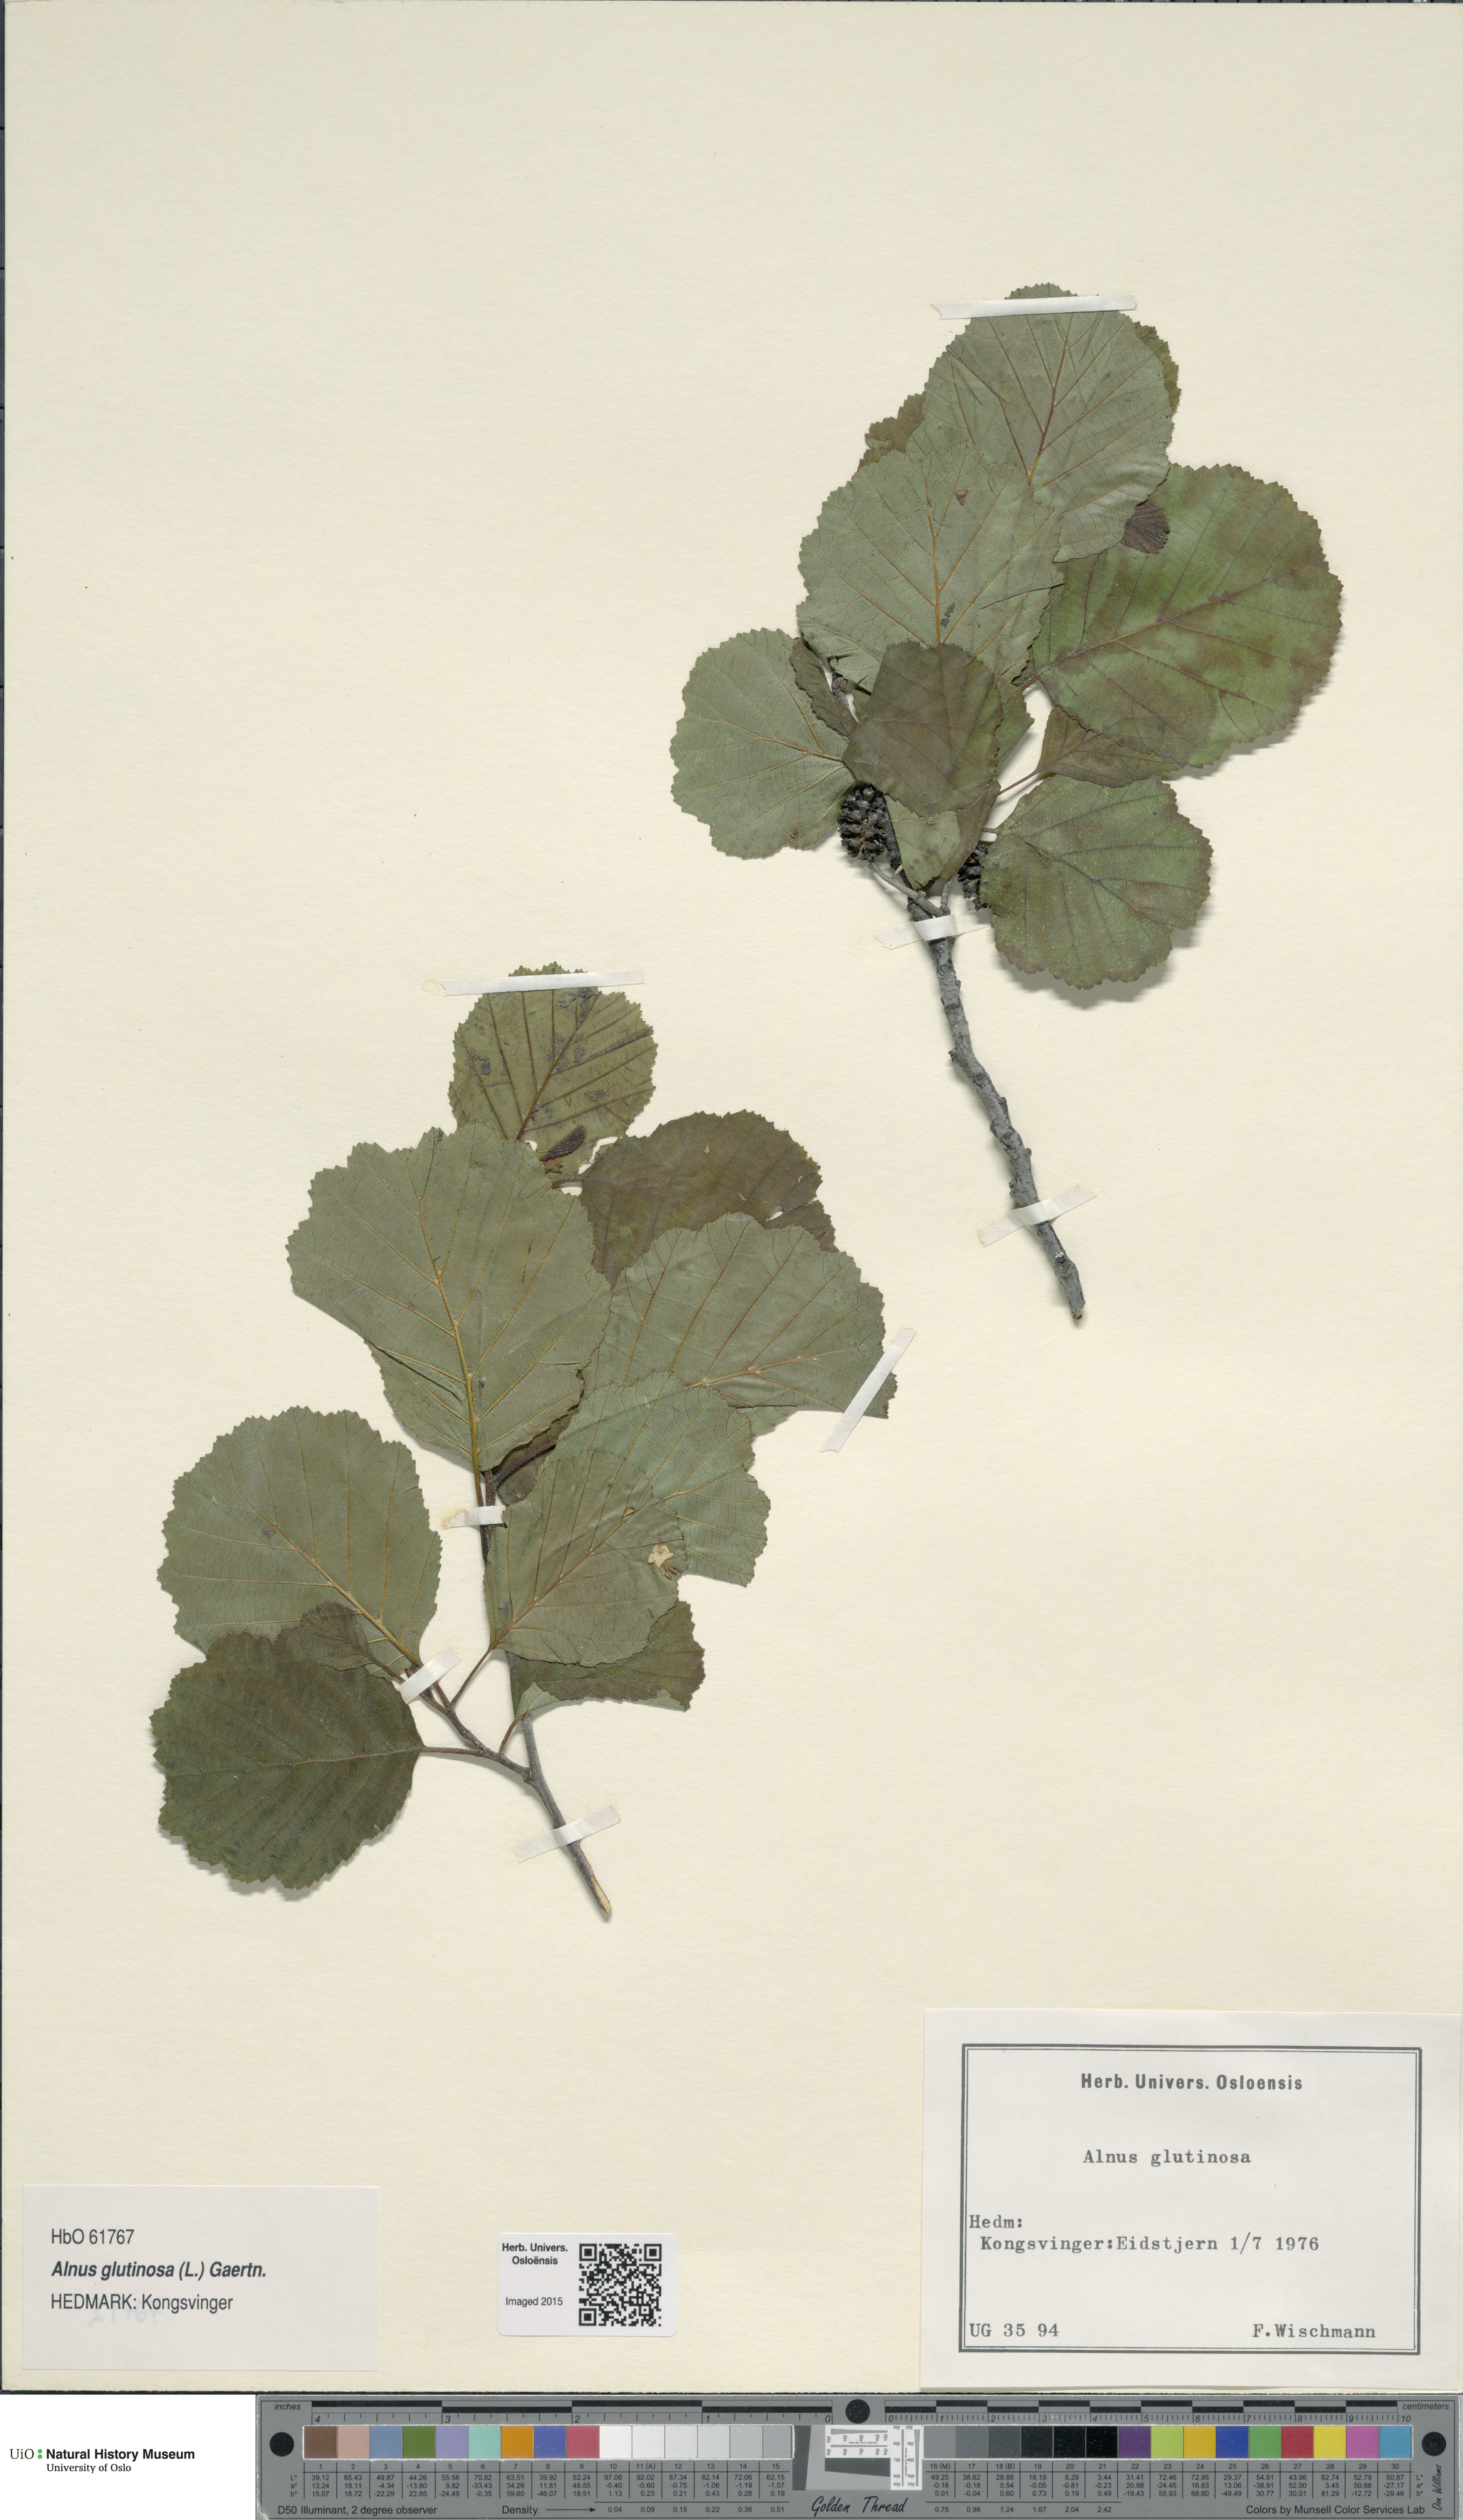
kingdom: Plantae
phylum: Tracheophyta
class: Magnoliopsida
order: Fagales
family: Betulaceae
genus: Alnus
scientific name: Alnus glutinosa
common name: Black alder
